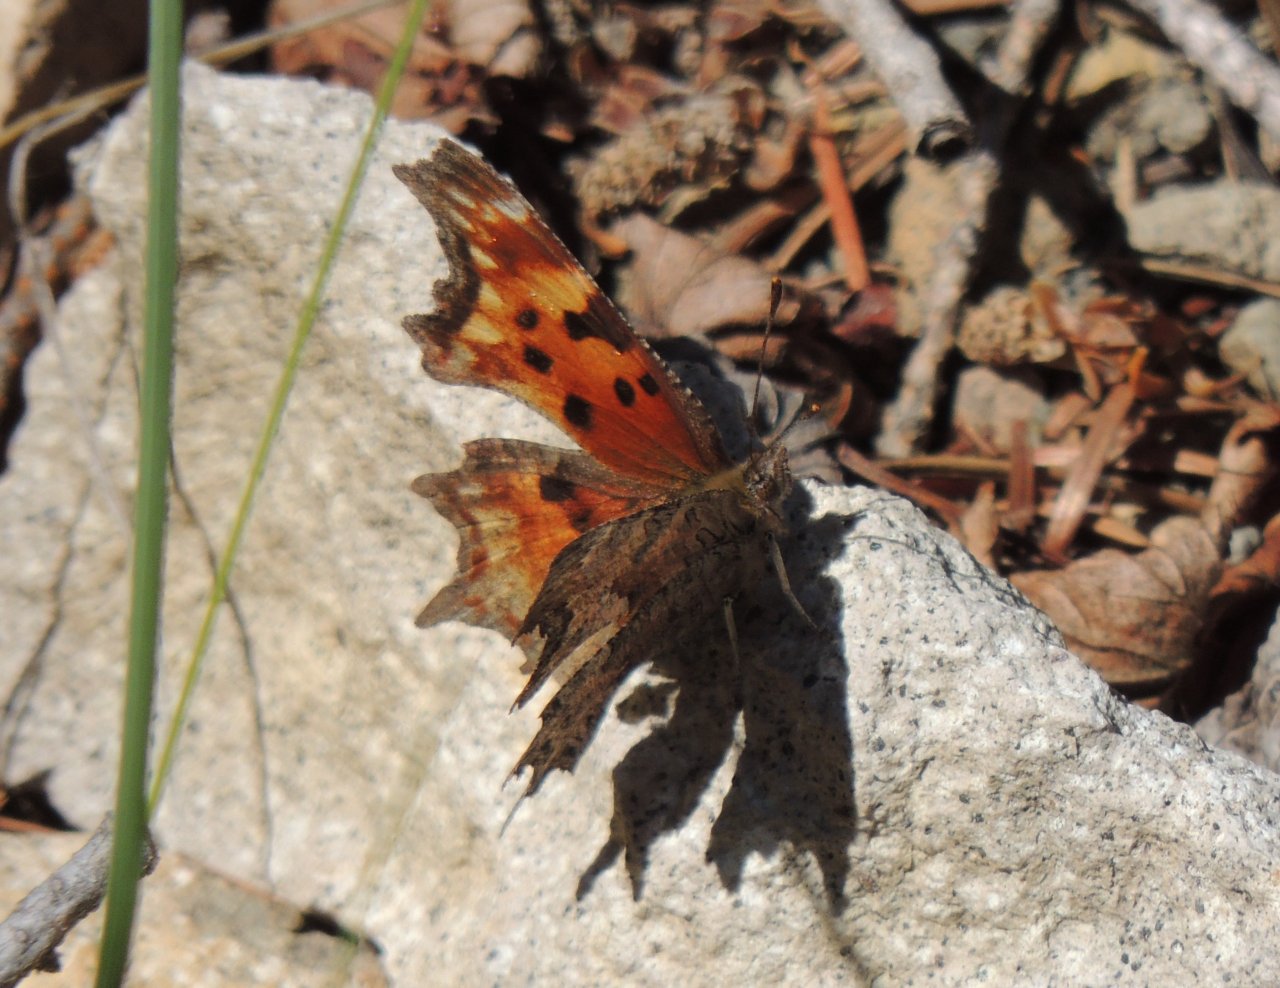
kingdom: Animalia
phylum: Arthropoda
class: Insecta
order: Lepidoptera
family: Nymphalidae
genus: Polygonia
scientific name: Polygonia gracilis
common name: Hoary Comma
